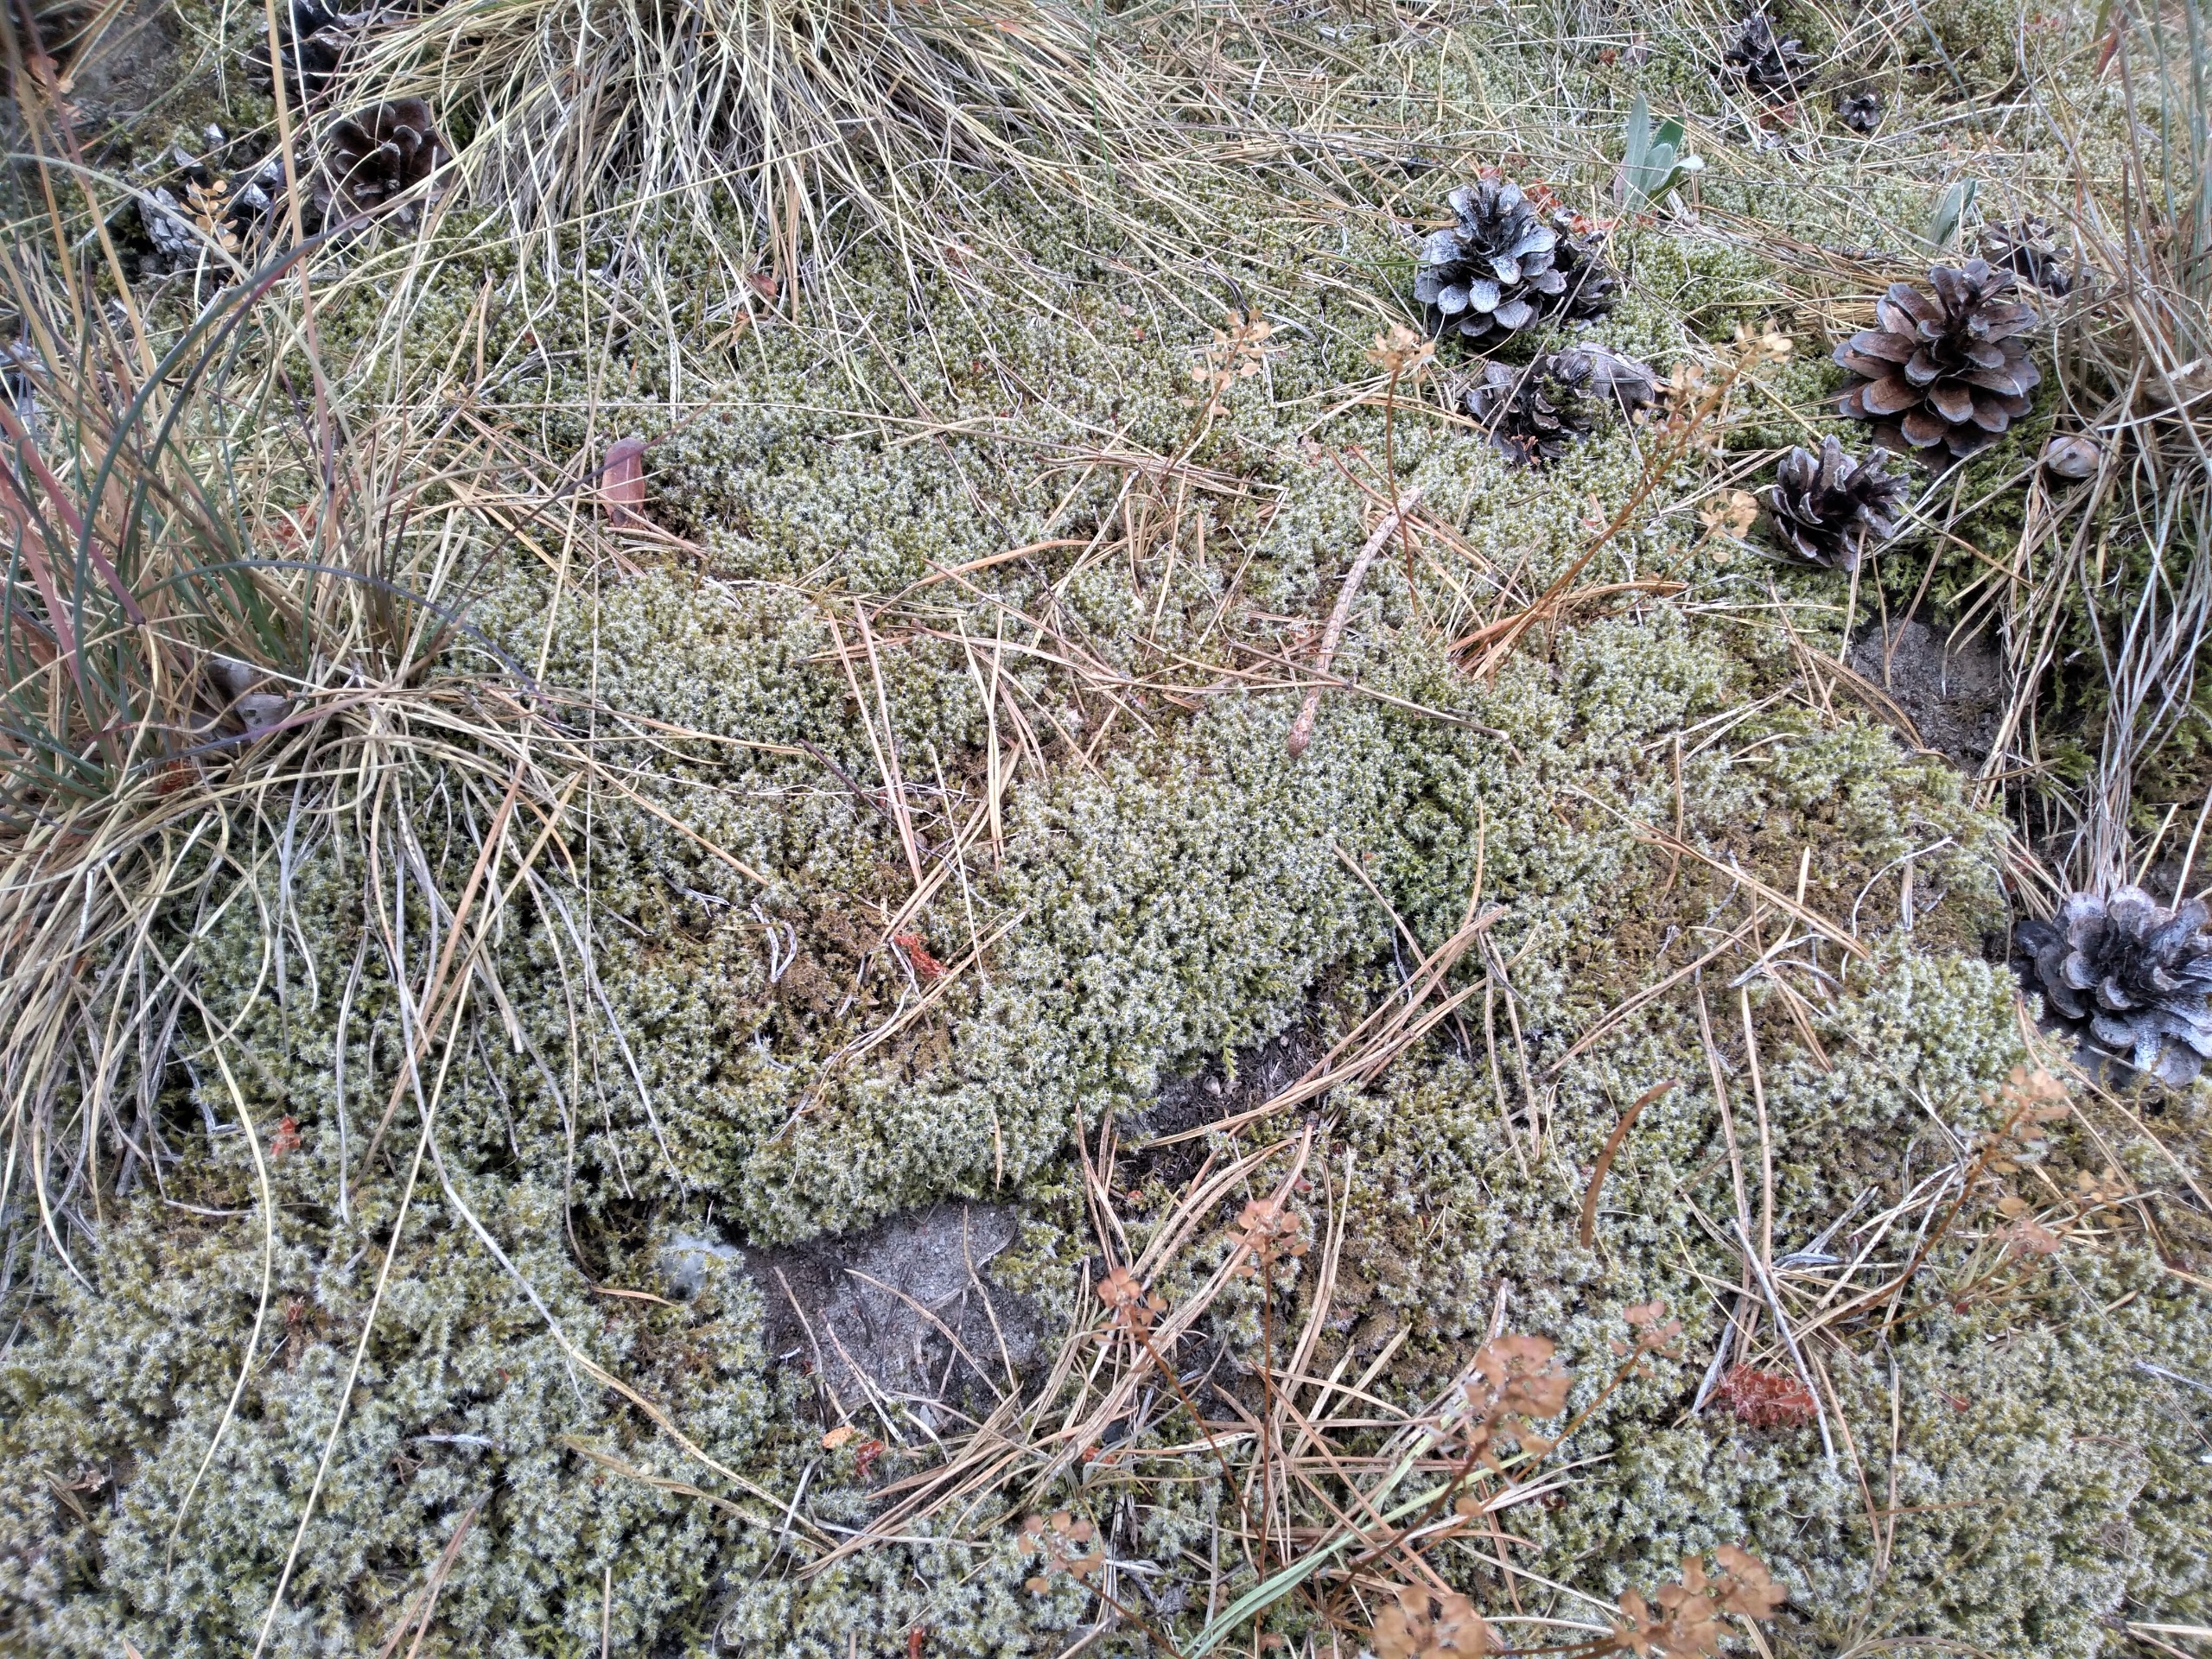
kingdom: Plantae
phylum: Bryophyta
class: Bryopsida
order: Grimmiales
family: Grimmiaceae
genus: Niphotrichum
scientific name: Niphotrichum elongatum
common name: Lang børstemos
